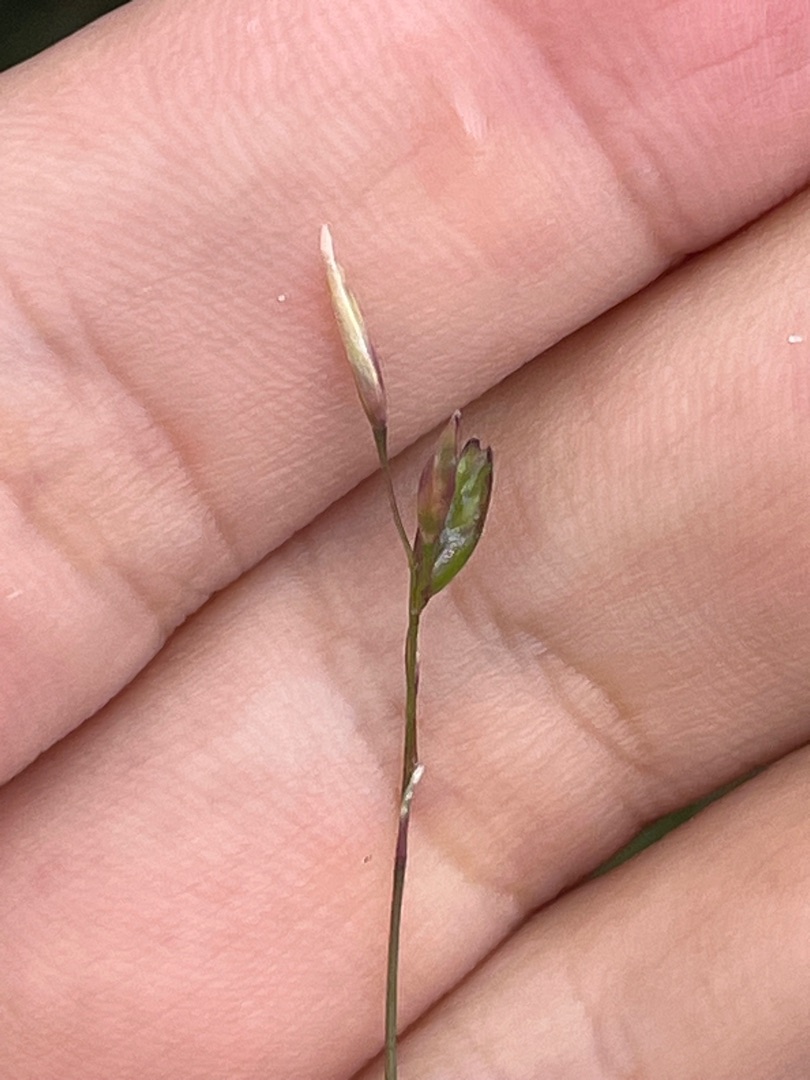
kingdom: Plantae
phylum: Tracheophyta
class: Liliopsida
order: Poales
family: Poaceae
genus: Danthonia
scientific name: Danthonia decumbens
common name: Tandbælg
